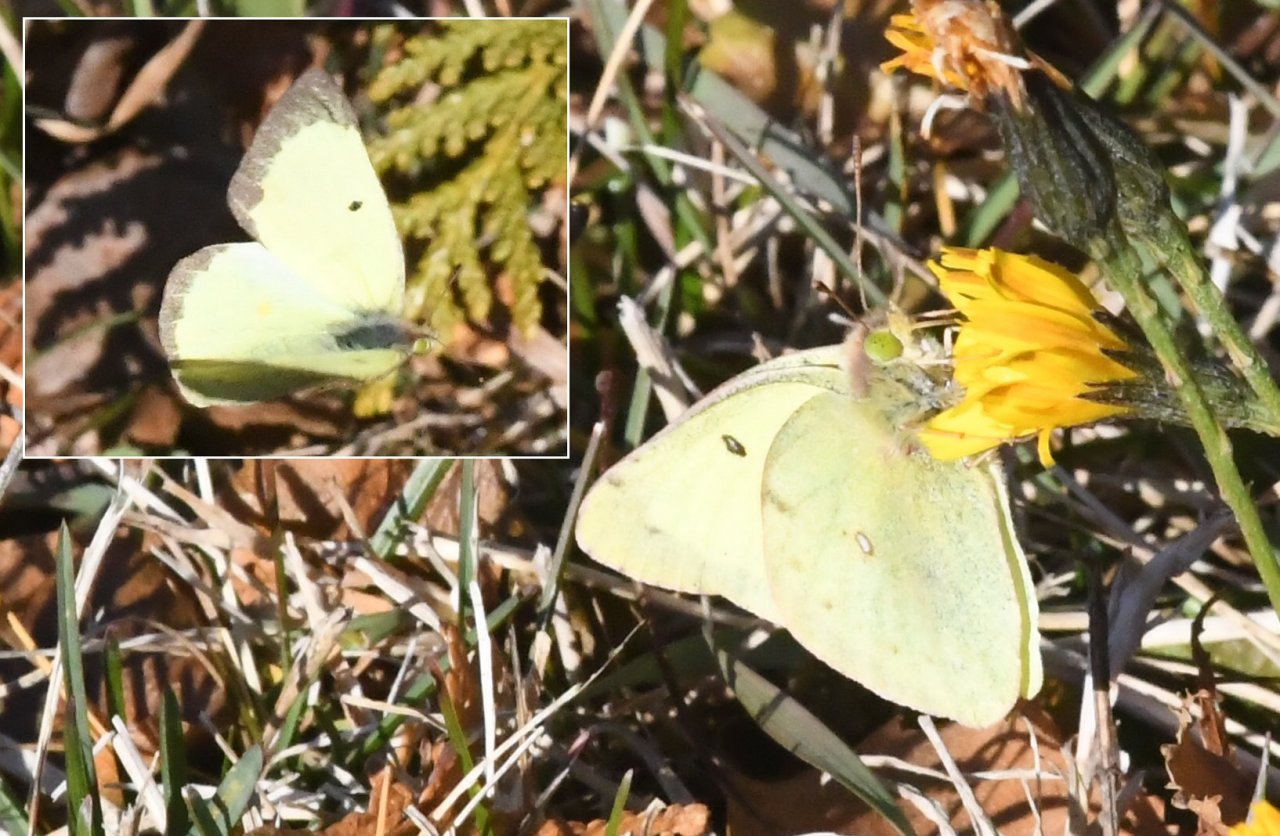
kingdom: Animalia
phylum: Arthropoda
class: Insecta
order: Lepidoptera
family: Pieridae
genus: Colias
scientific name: Colias philodice
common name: Clouded Sulphur
